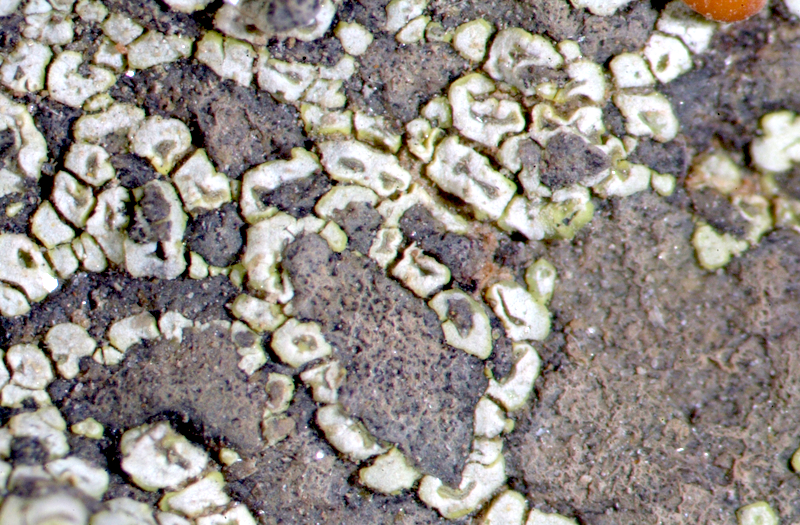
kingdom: Fungi
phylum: Ascomycota
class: Lecanoromycetes
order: Acarosporales
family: Acarosporaceae
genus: Acarospora
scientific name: Acarospora
